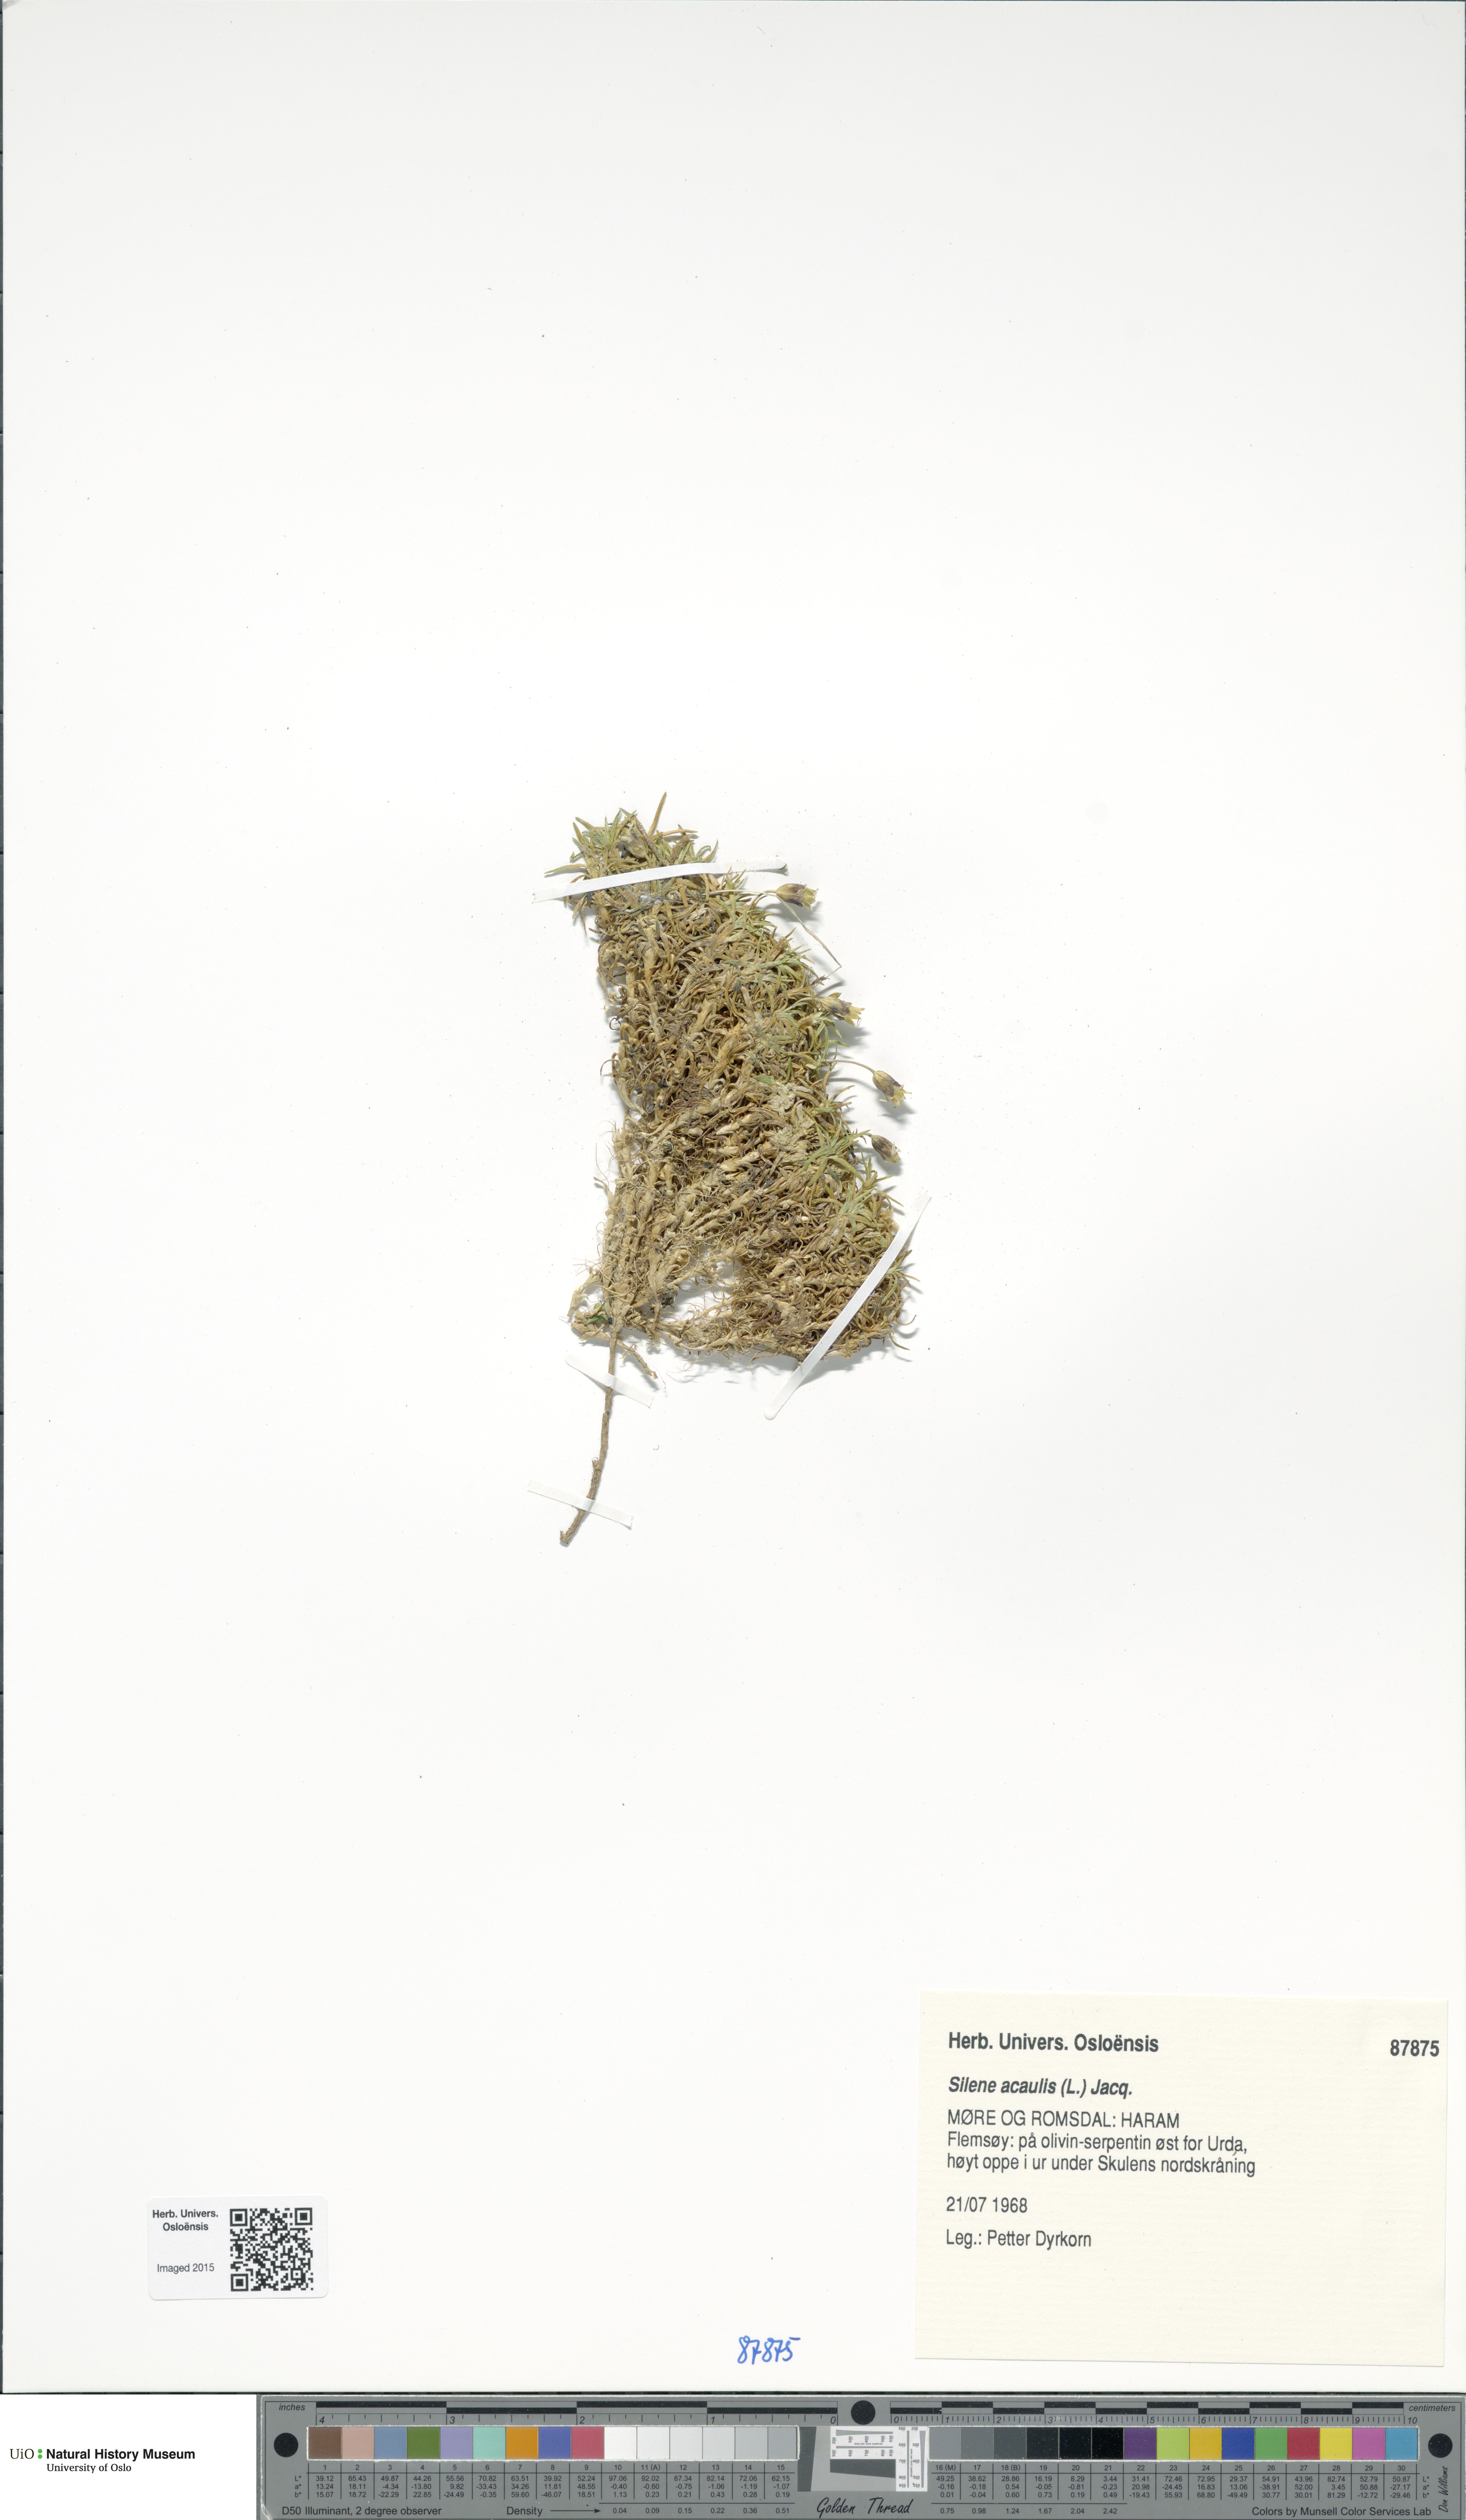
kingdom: Plantae
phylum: Tracheophyta
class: Magnoliopsida
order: Caryophyllales
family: Caryophyllaceae
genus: Silene
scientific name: Silene acaulis
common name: Moss campion
